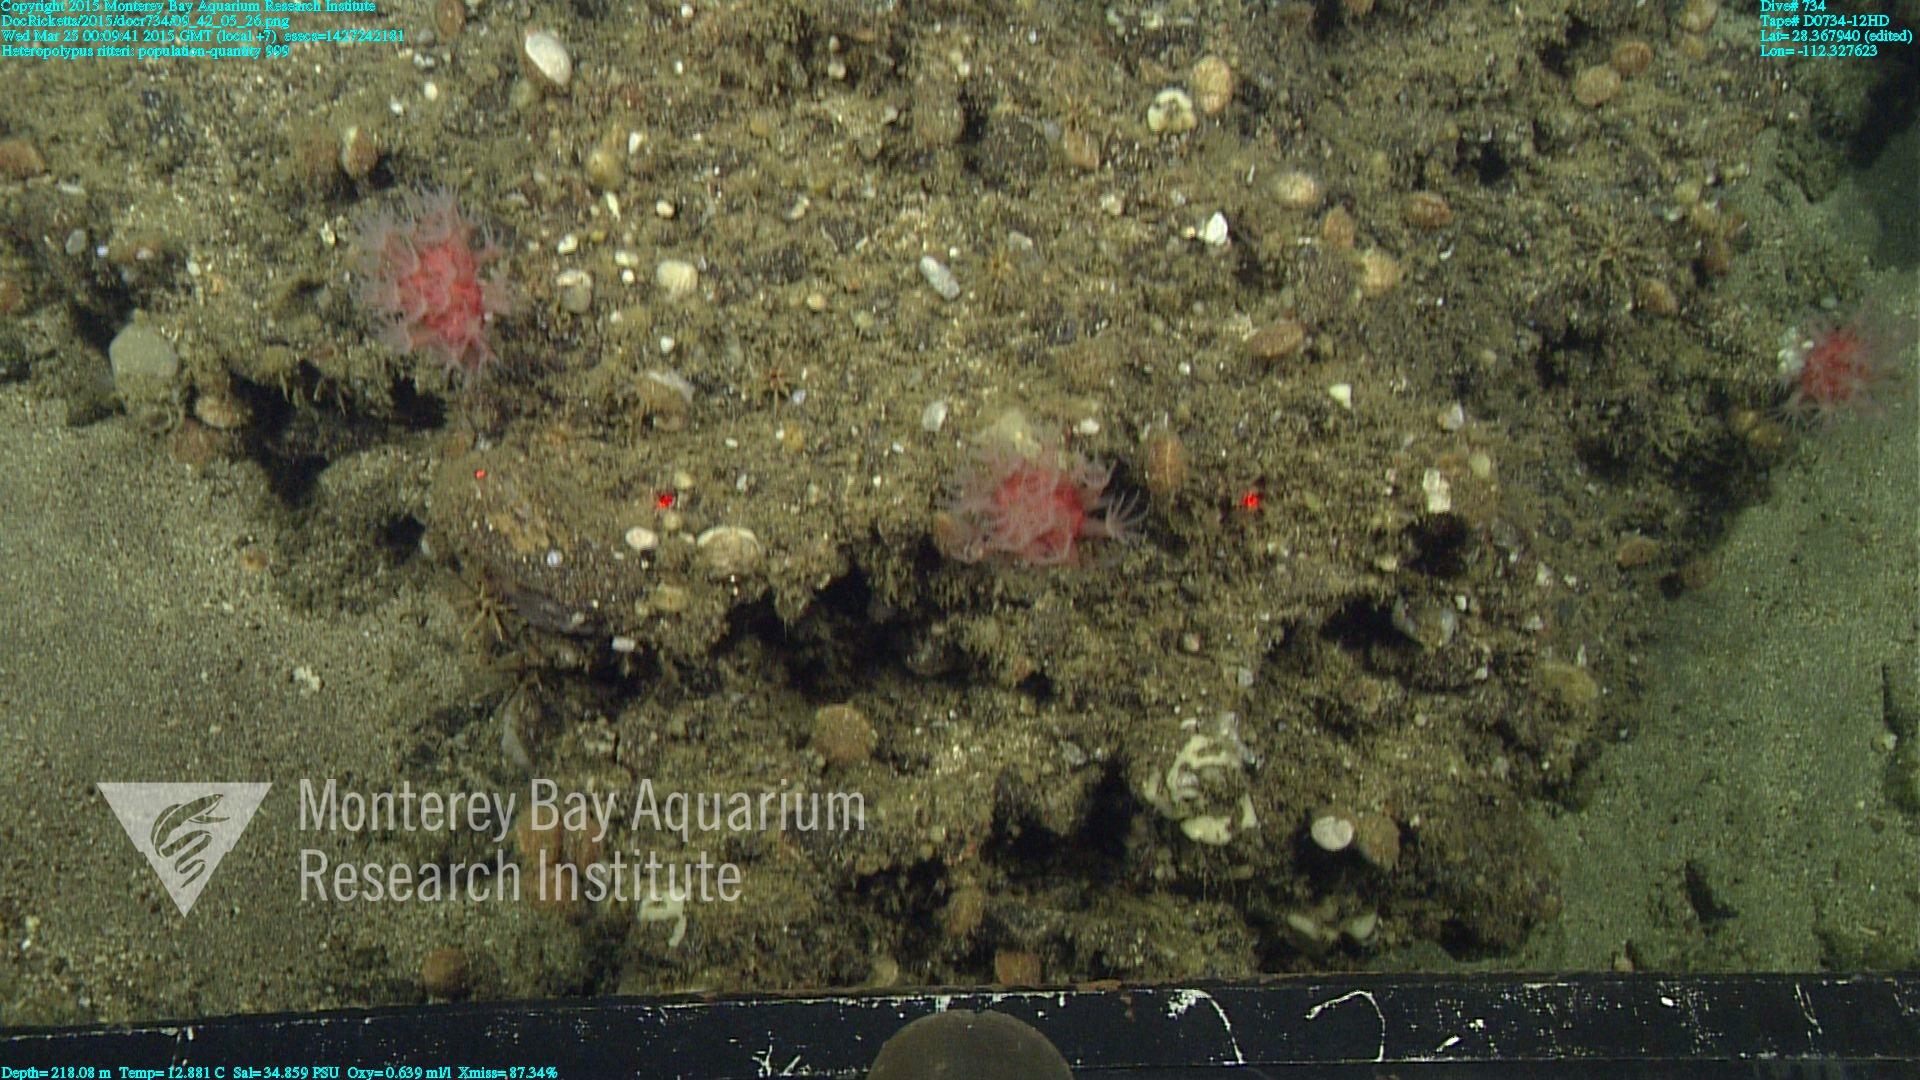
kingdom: Animalia
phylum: Cnidaria
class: Anthozoa
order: Scleralcyonacea
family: Coralliidae
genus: Heteropolypus
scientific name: Heteropolypus ritteri
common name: Ritter's soft coral
